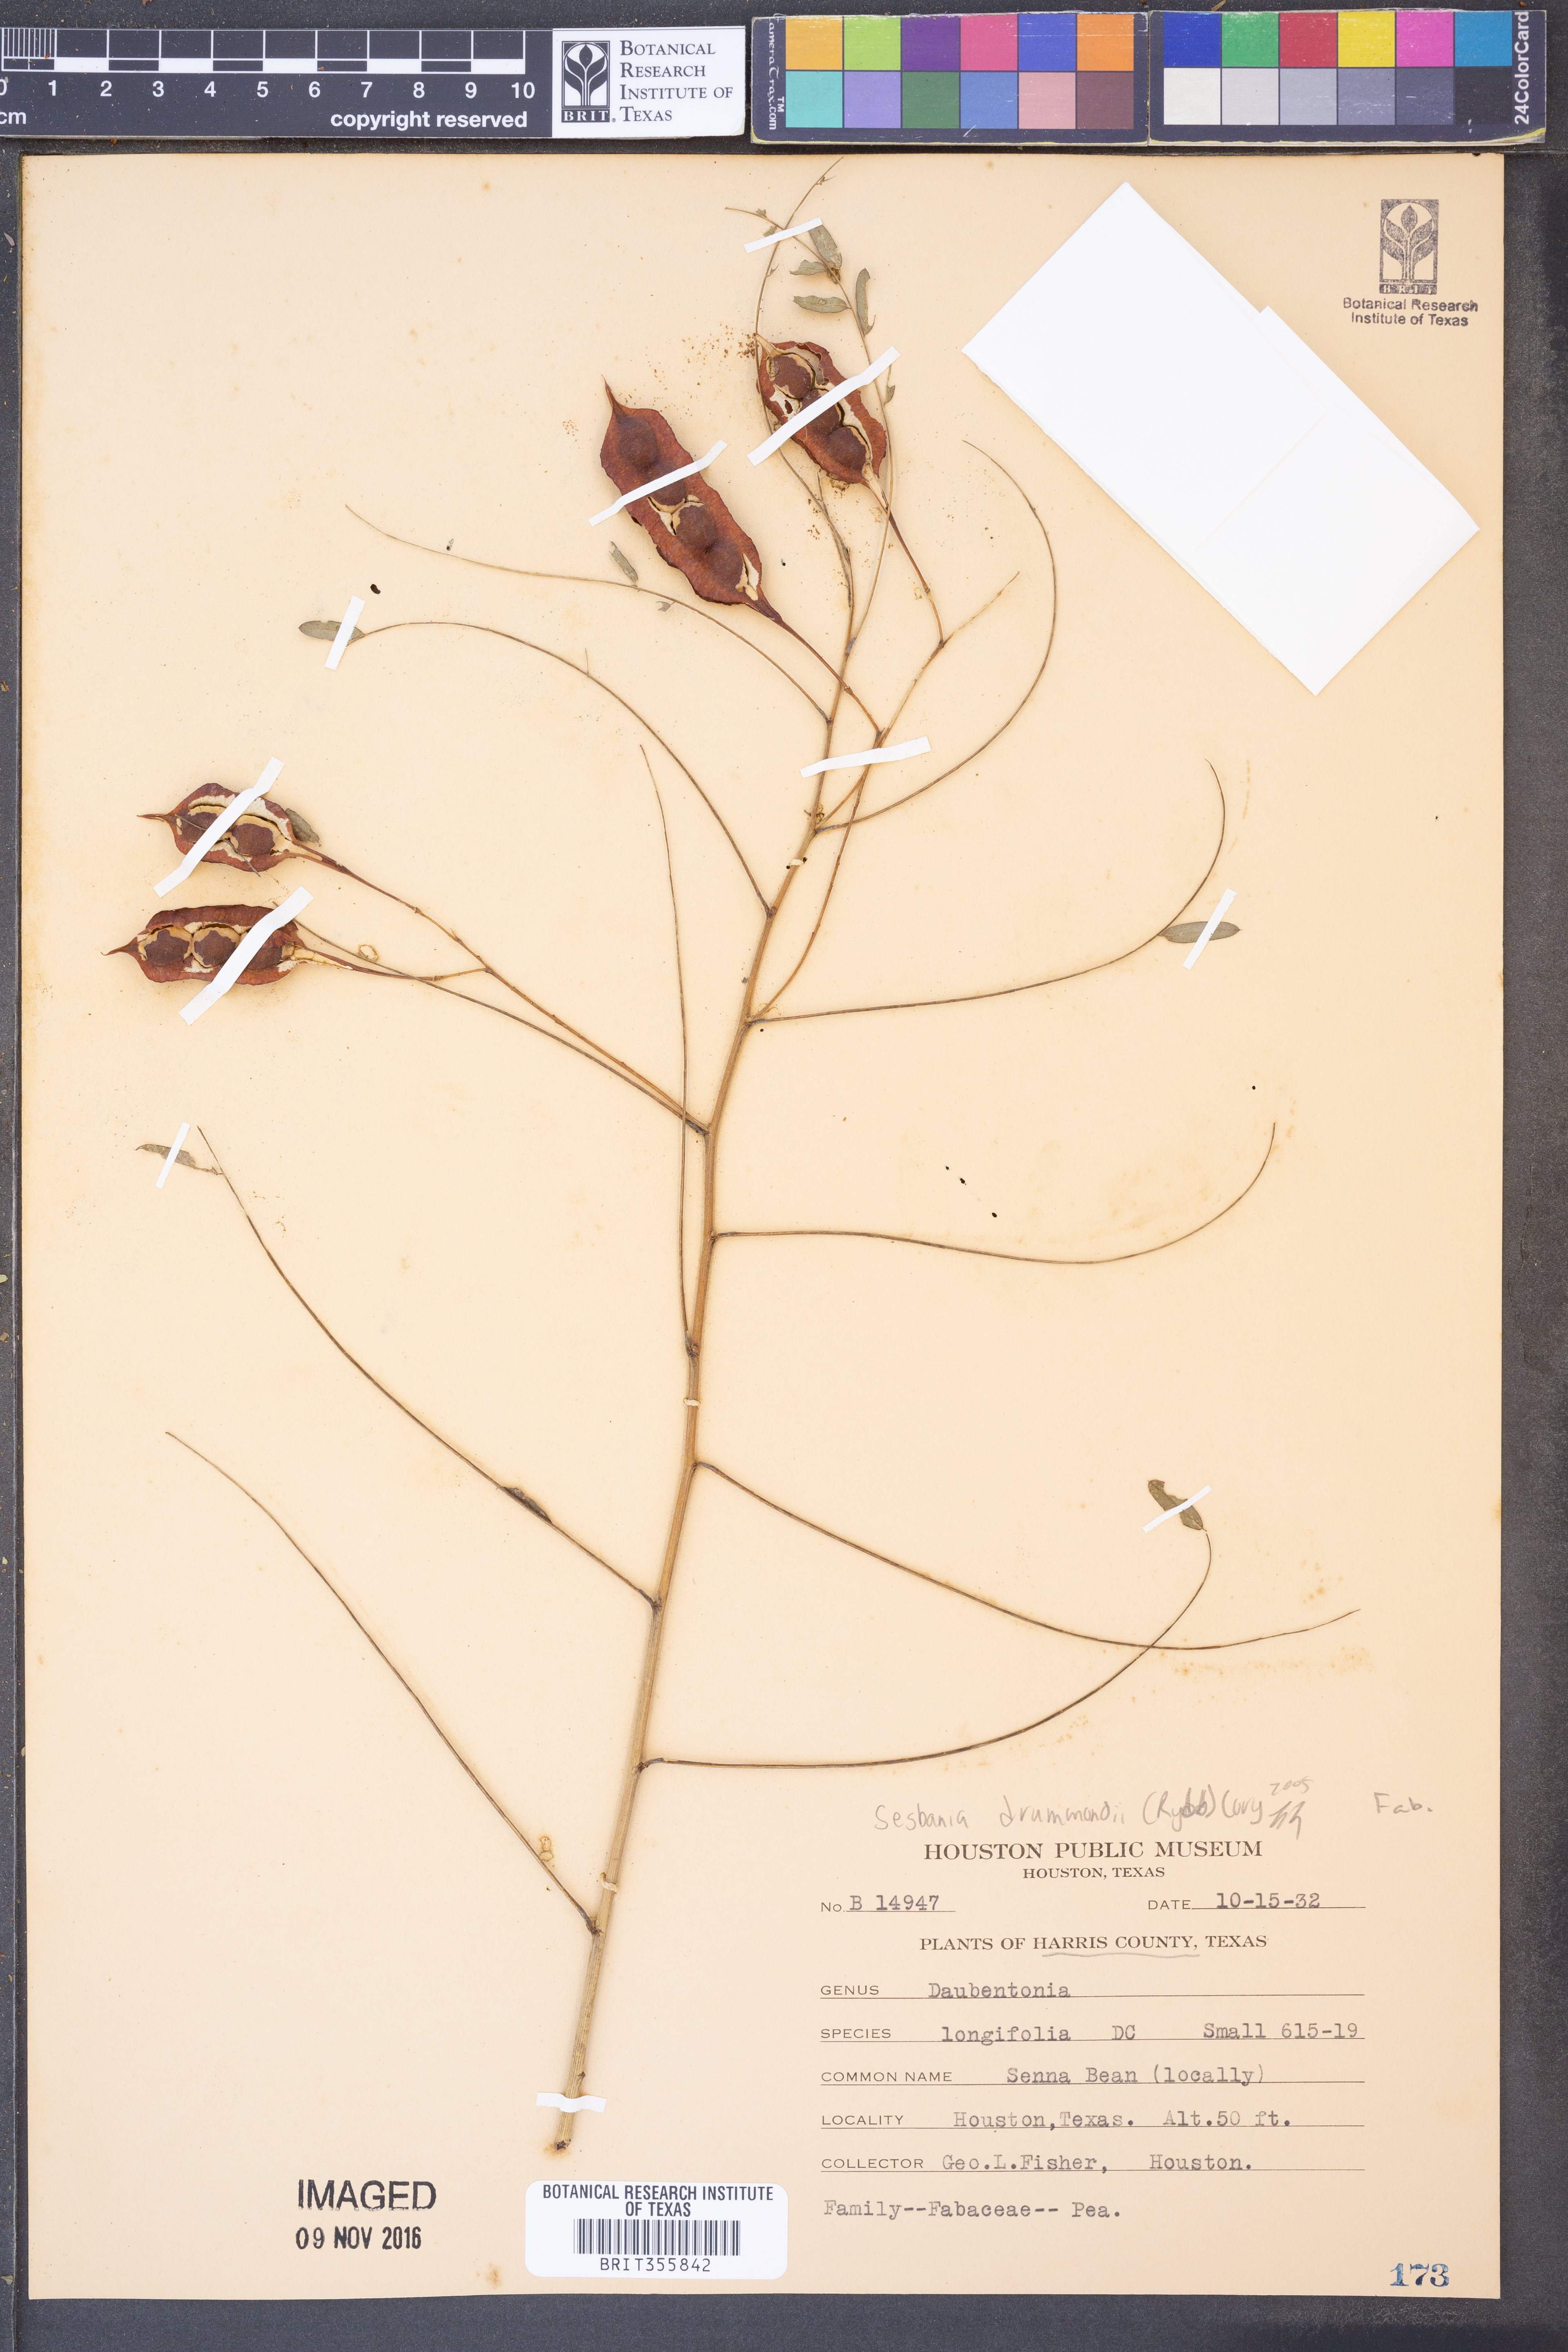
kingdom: Plantae
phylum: Tracheophyta
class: Magnoliopsida
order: Fabales
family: Fabaceae
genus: Sesbania
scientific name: Sesbania drummondii
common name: Poison-bean
